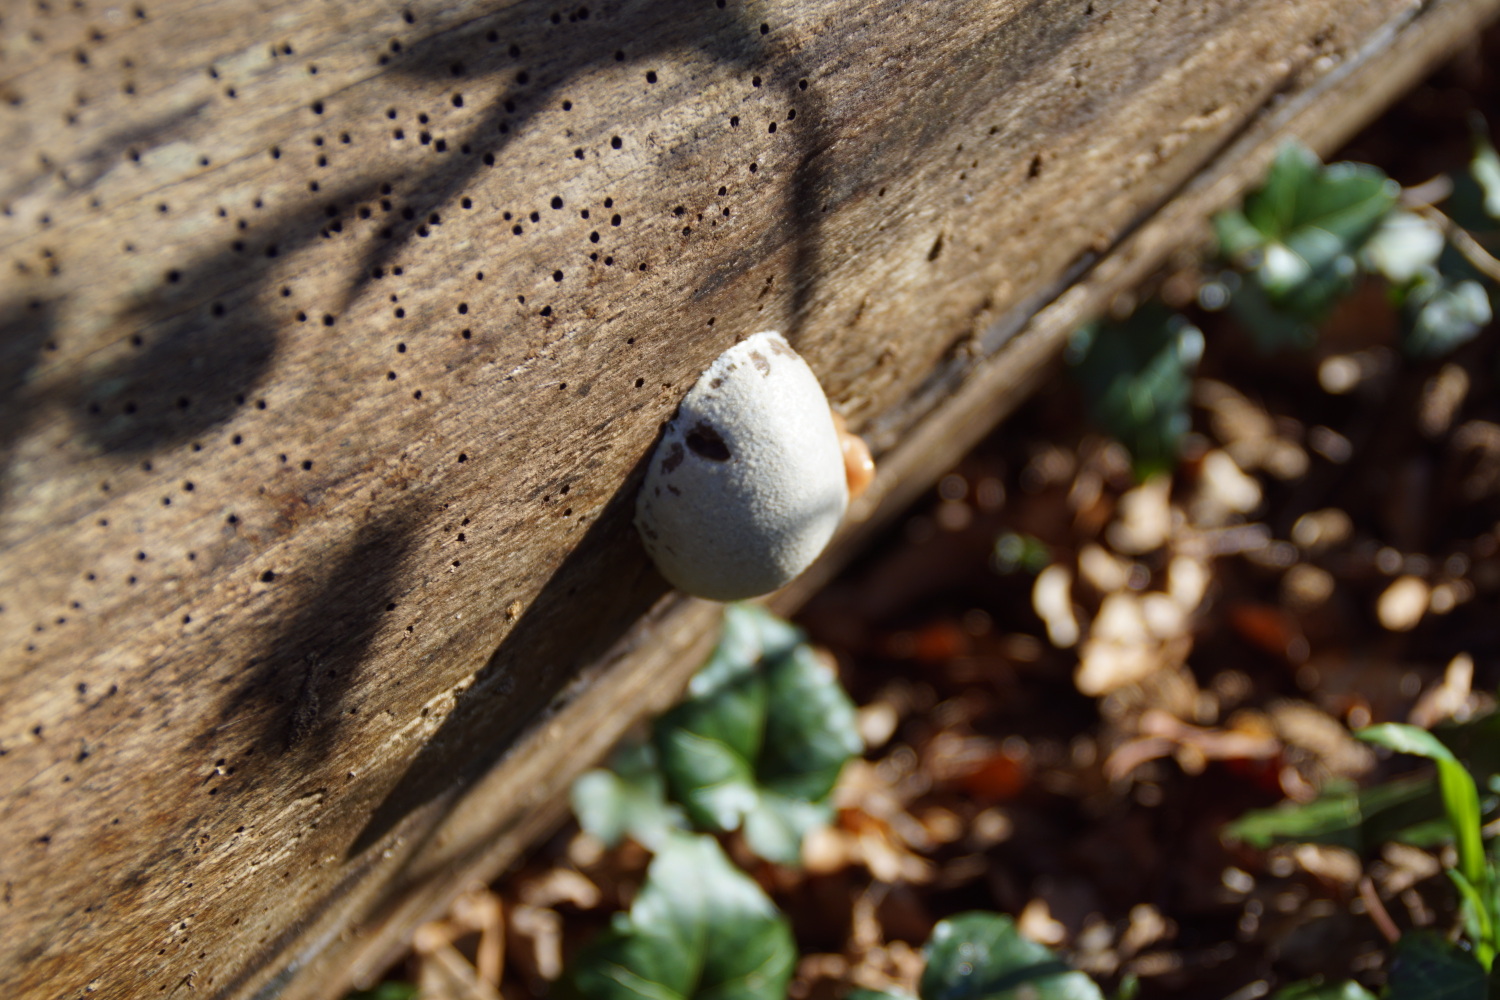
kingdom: Protozoa
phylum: Mycetozoa
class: Myxomycetes
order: Cribrariales
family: Tubiferaceae
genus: Reticularia
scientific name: Reticularia lycoperdon
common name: skinnende støvpude
